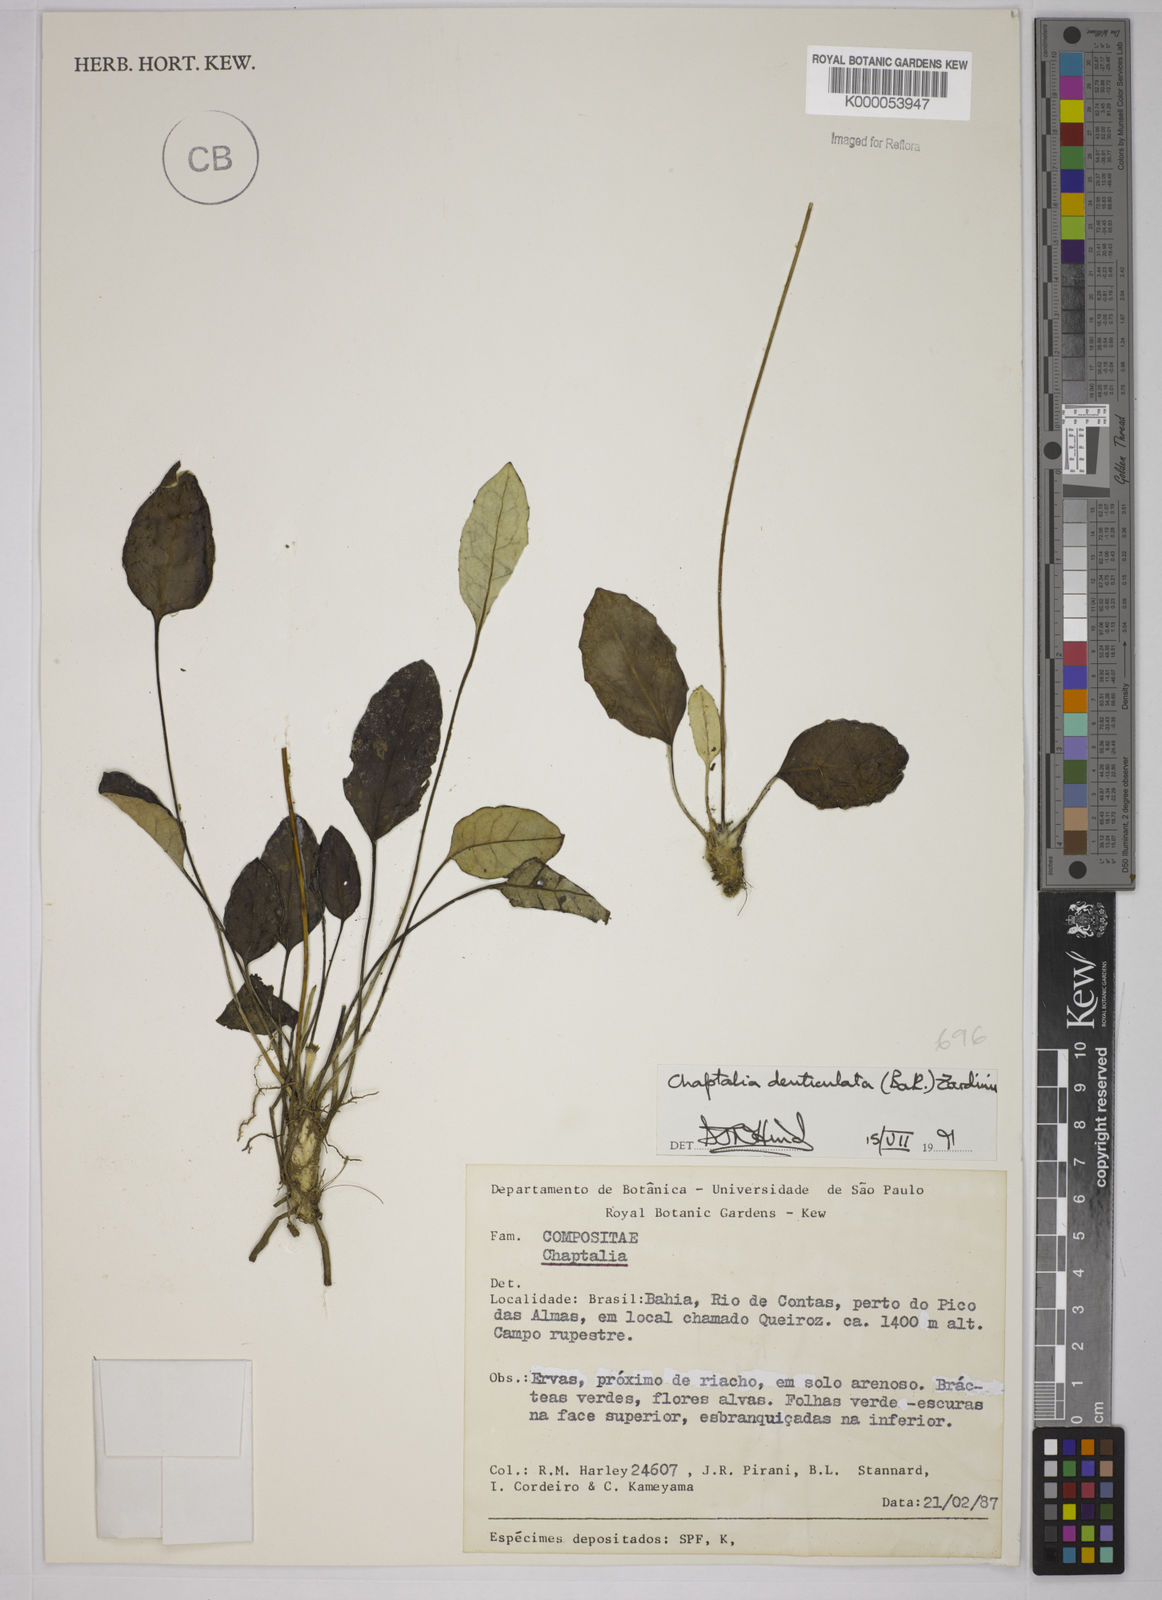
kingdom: Plantae
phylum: Tracheophyta
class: Magnoliopsida
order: Asterales
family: Asteraceae
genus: Chaptalia
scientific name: Chaptalia denticulata
